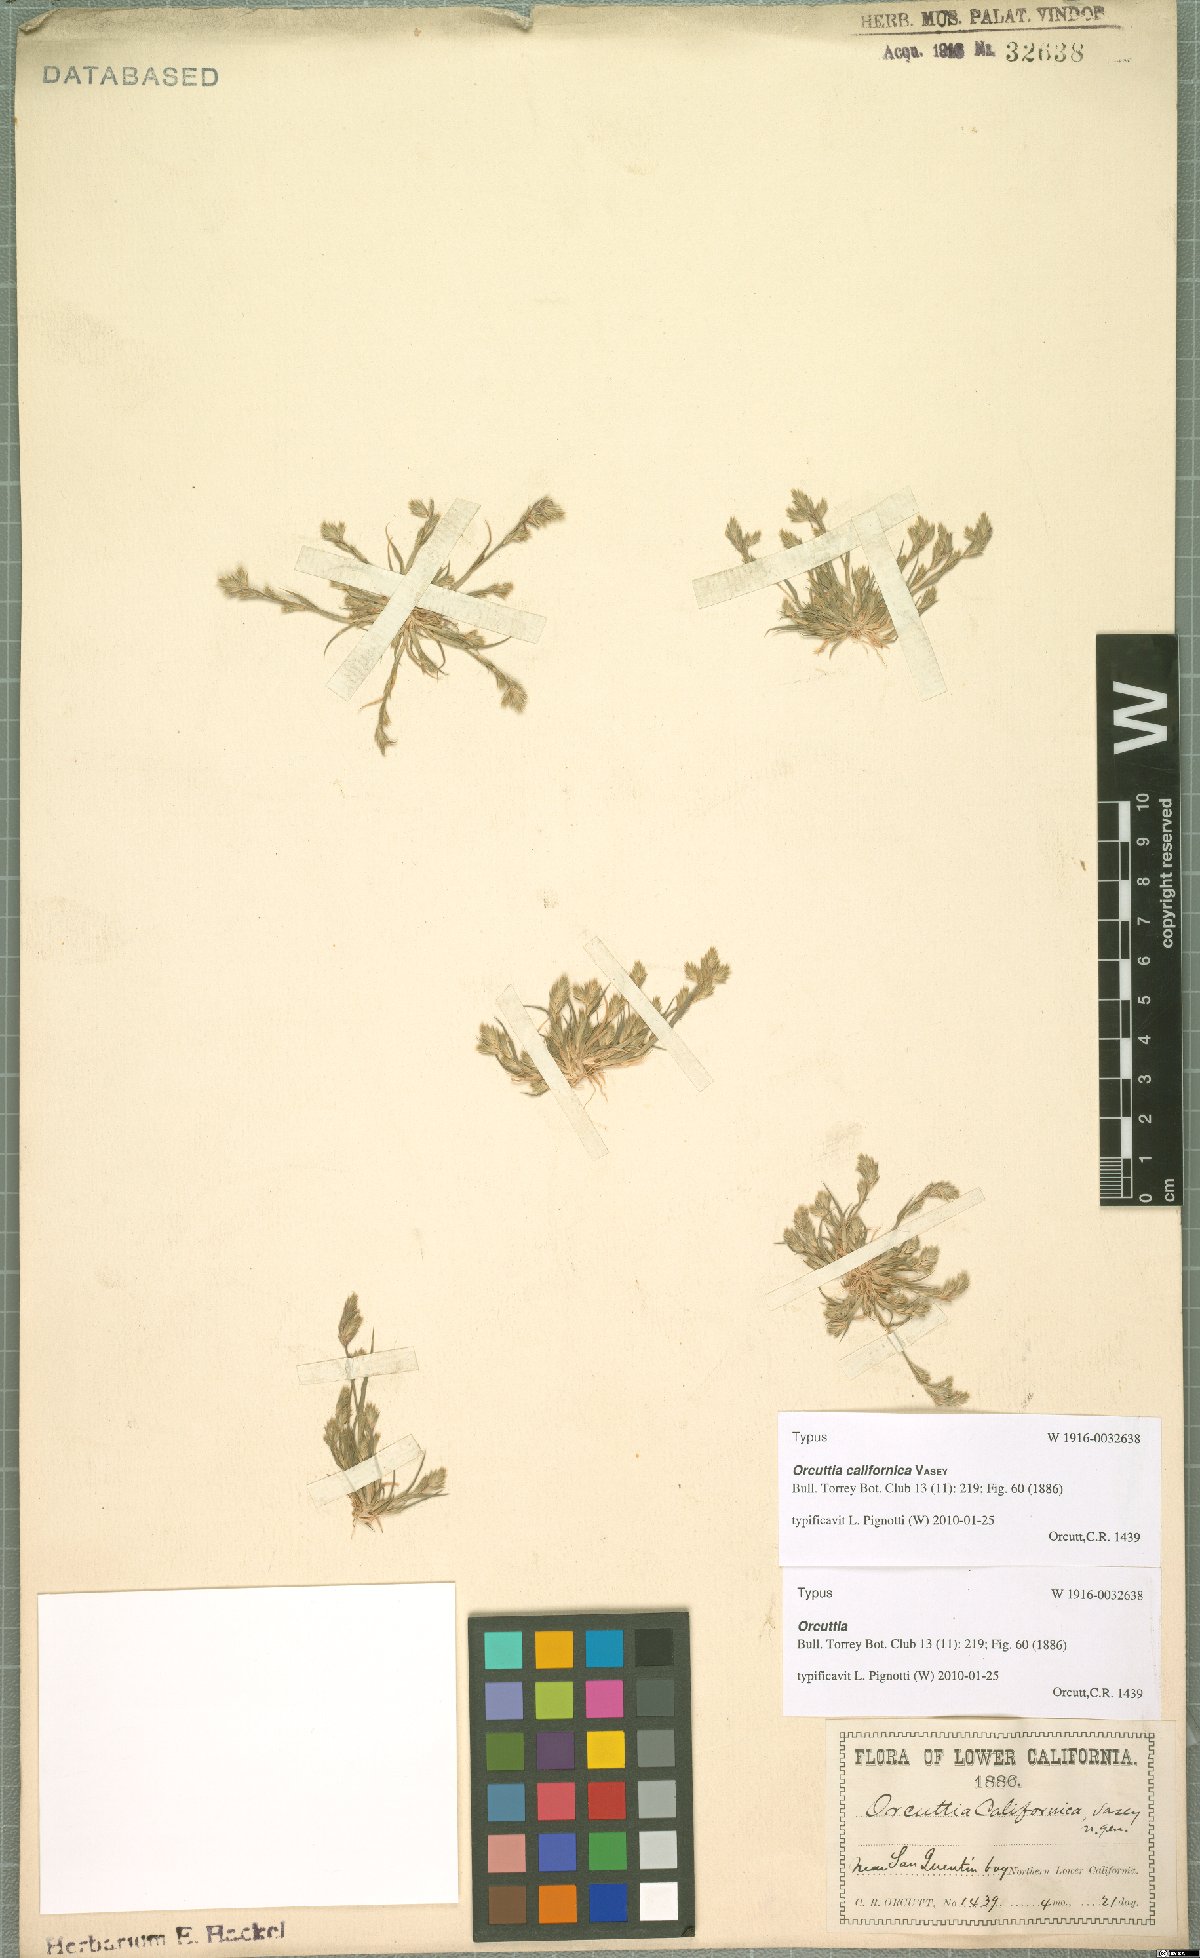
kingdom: Plantae
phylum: Tracheophyta
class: Liliopsida
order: Poales
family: Poaceae
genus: Orcuttia
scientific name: Orcuttia californica
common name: California orcutt grass
